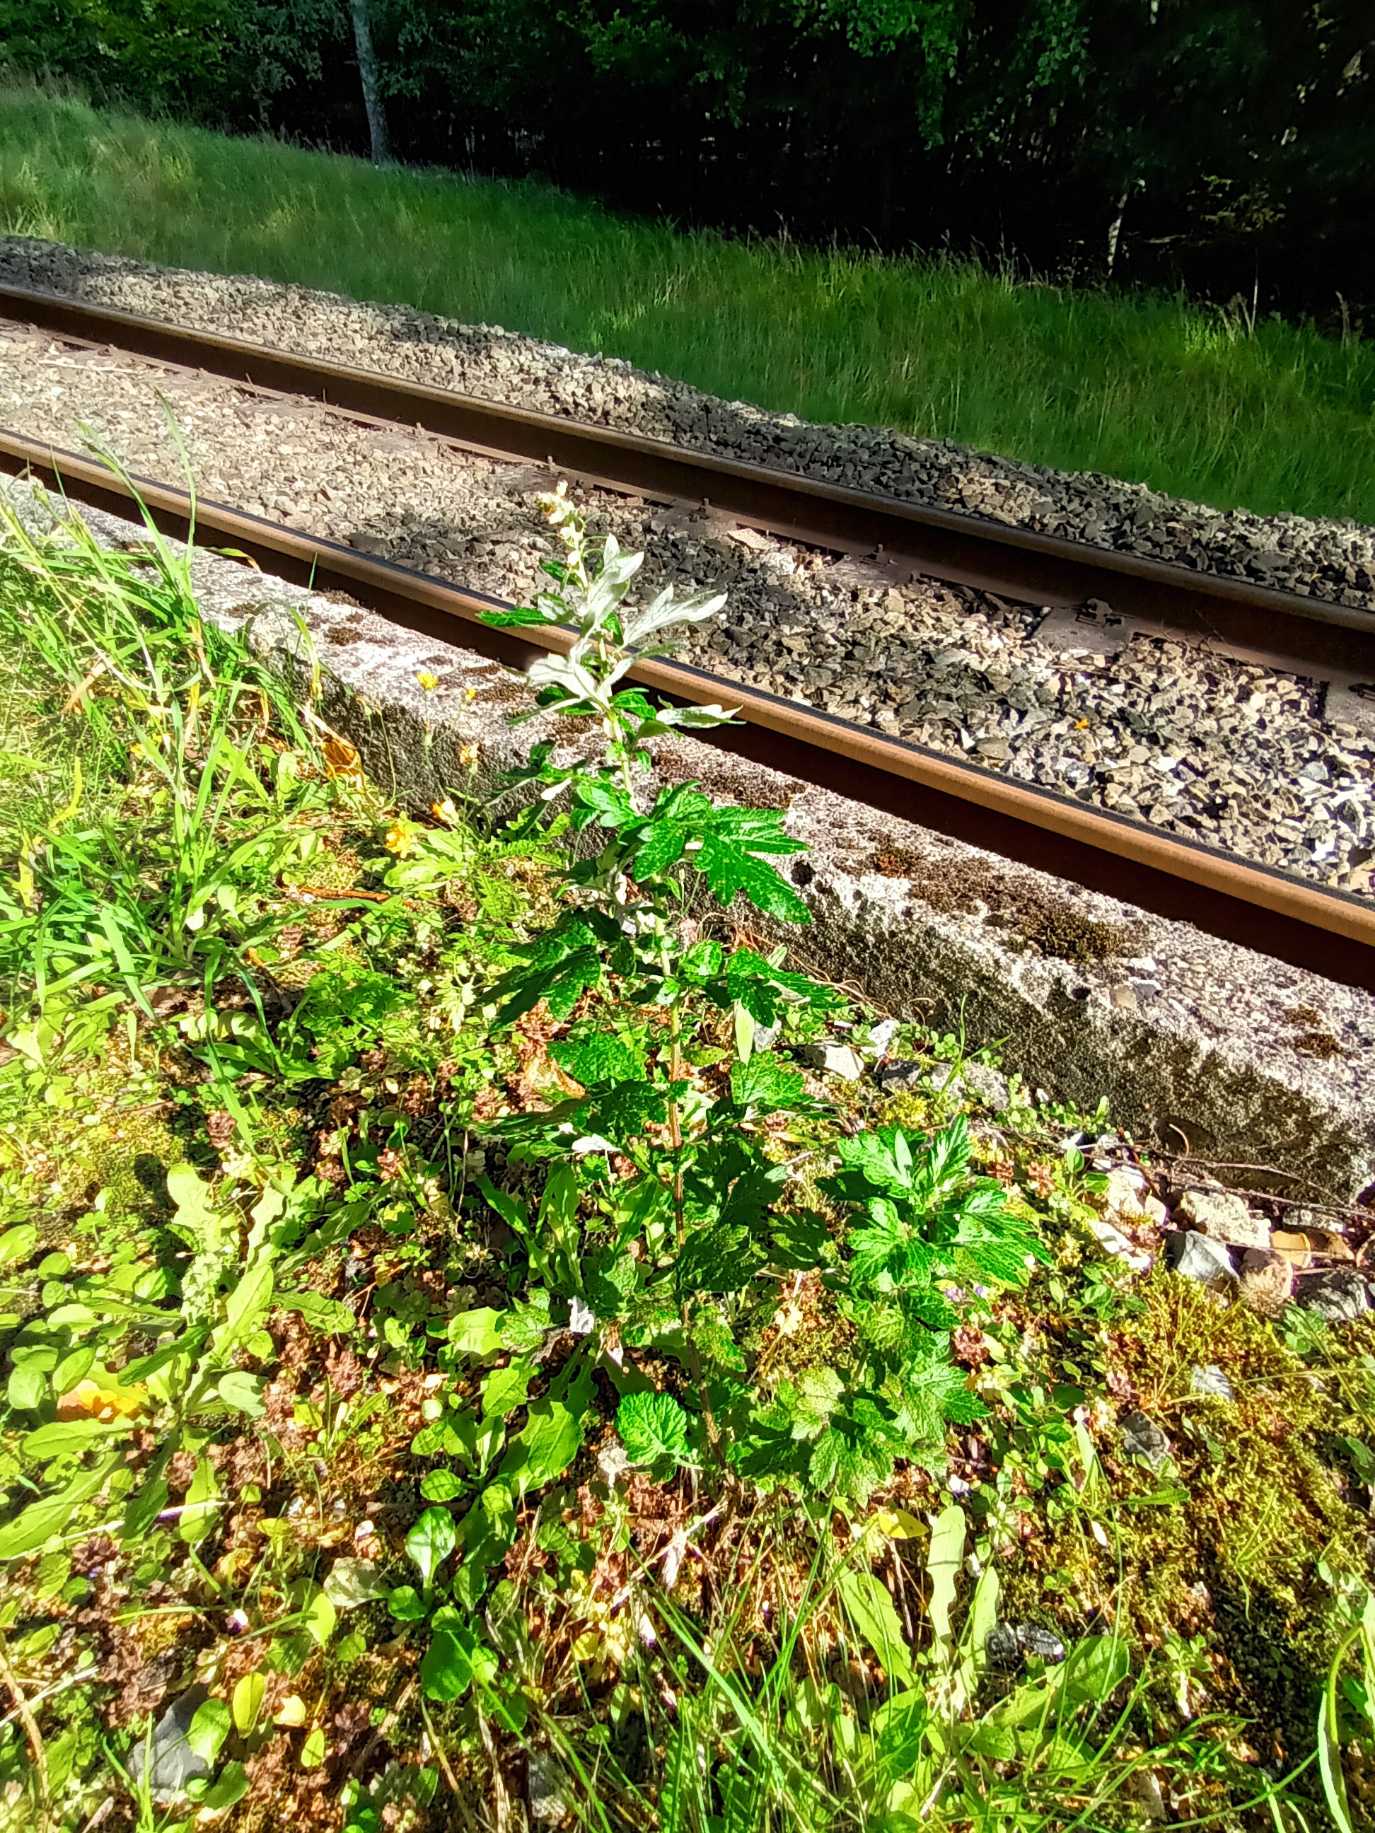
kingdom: Plantae
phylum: Tracheophyta
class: Magnoliopsida
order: Asterales
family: Asteraceae
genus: Artemisia
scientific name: Artemisia vulgaris
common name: Grå-bynke
